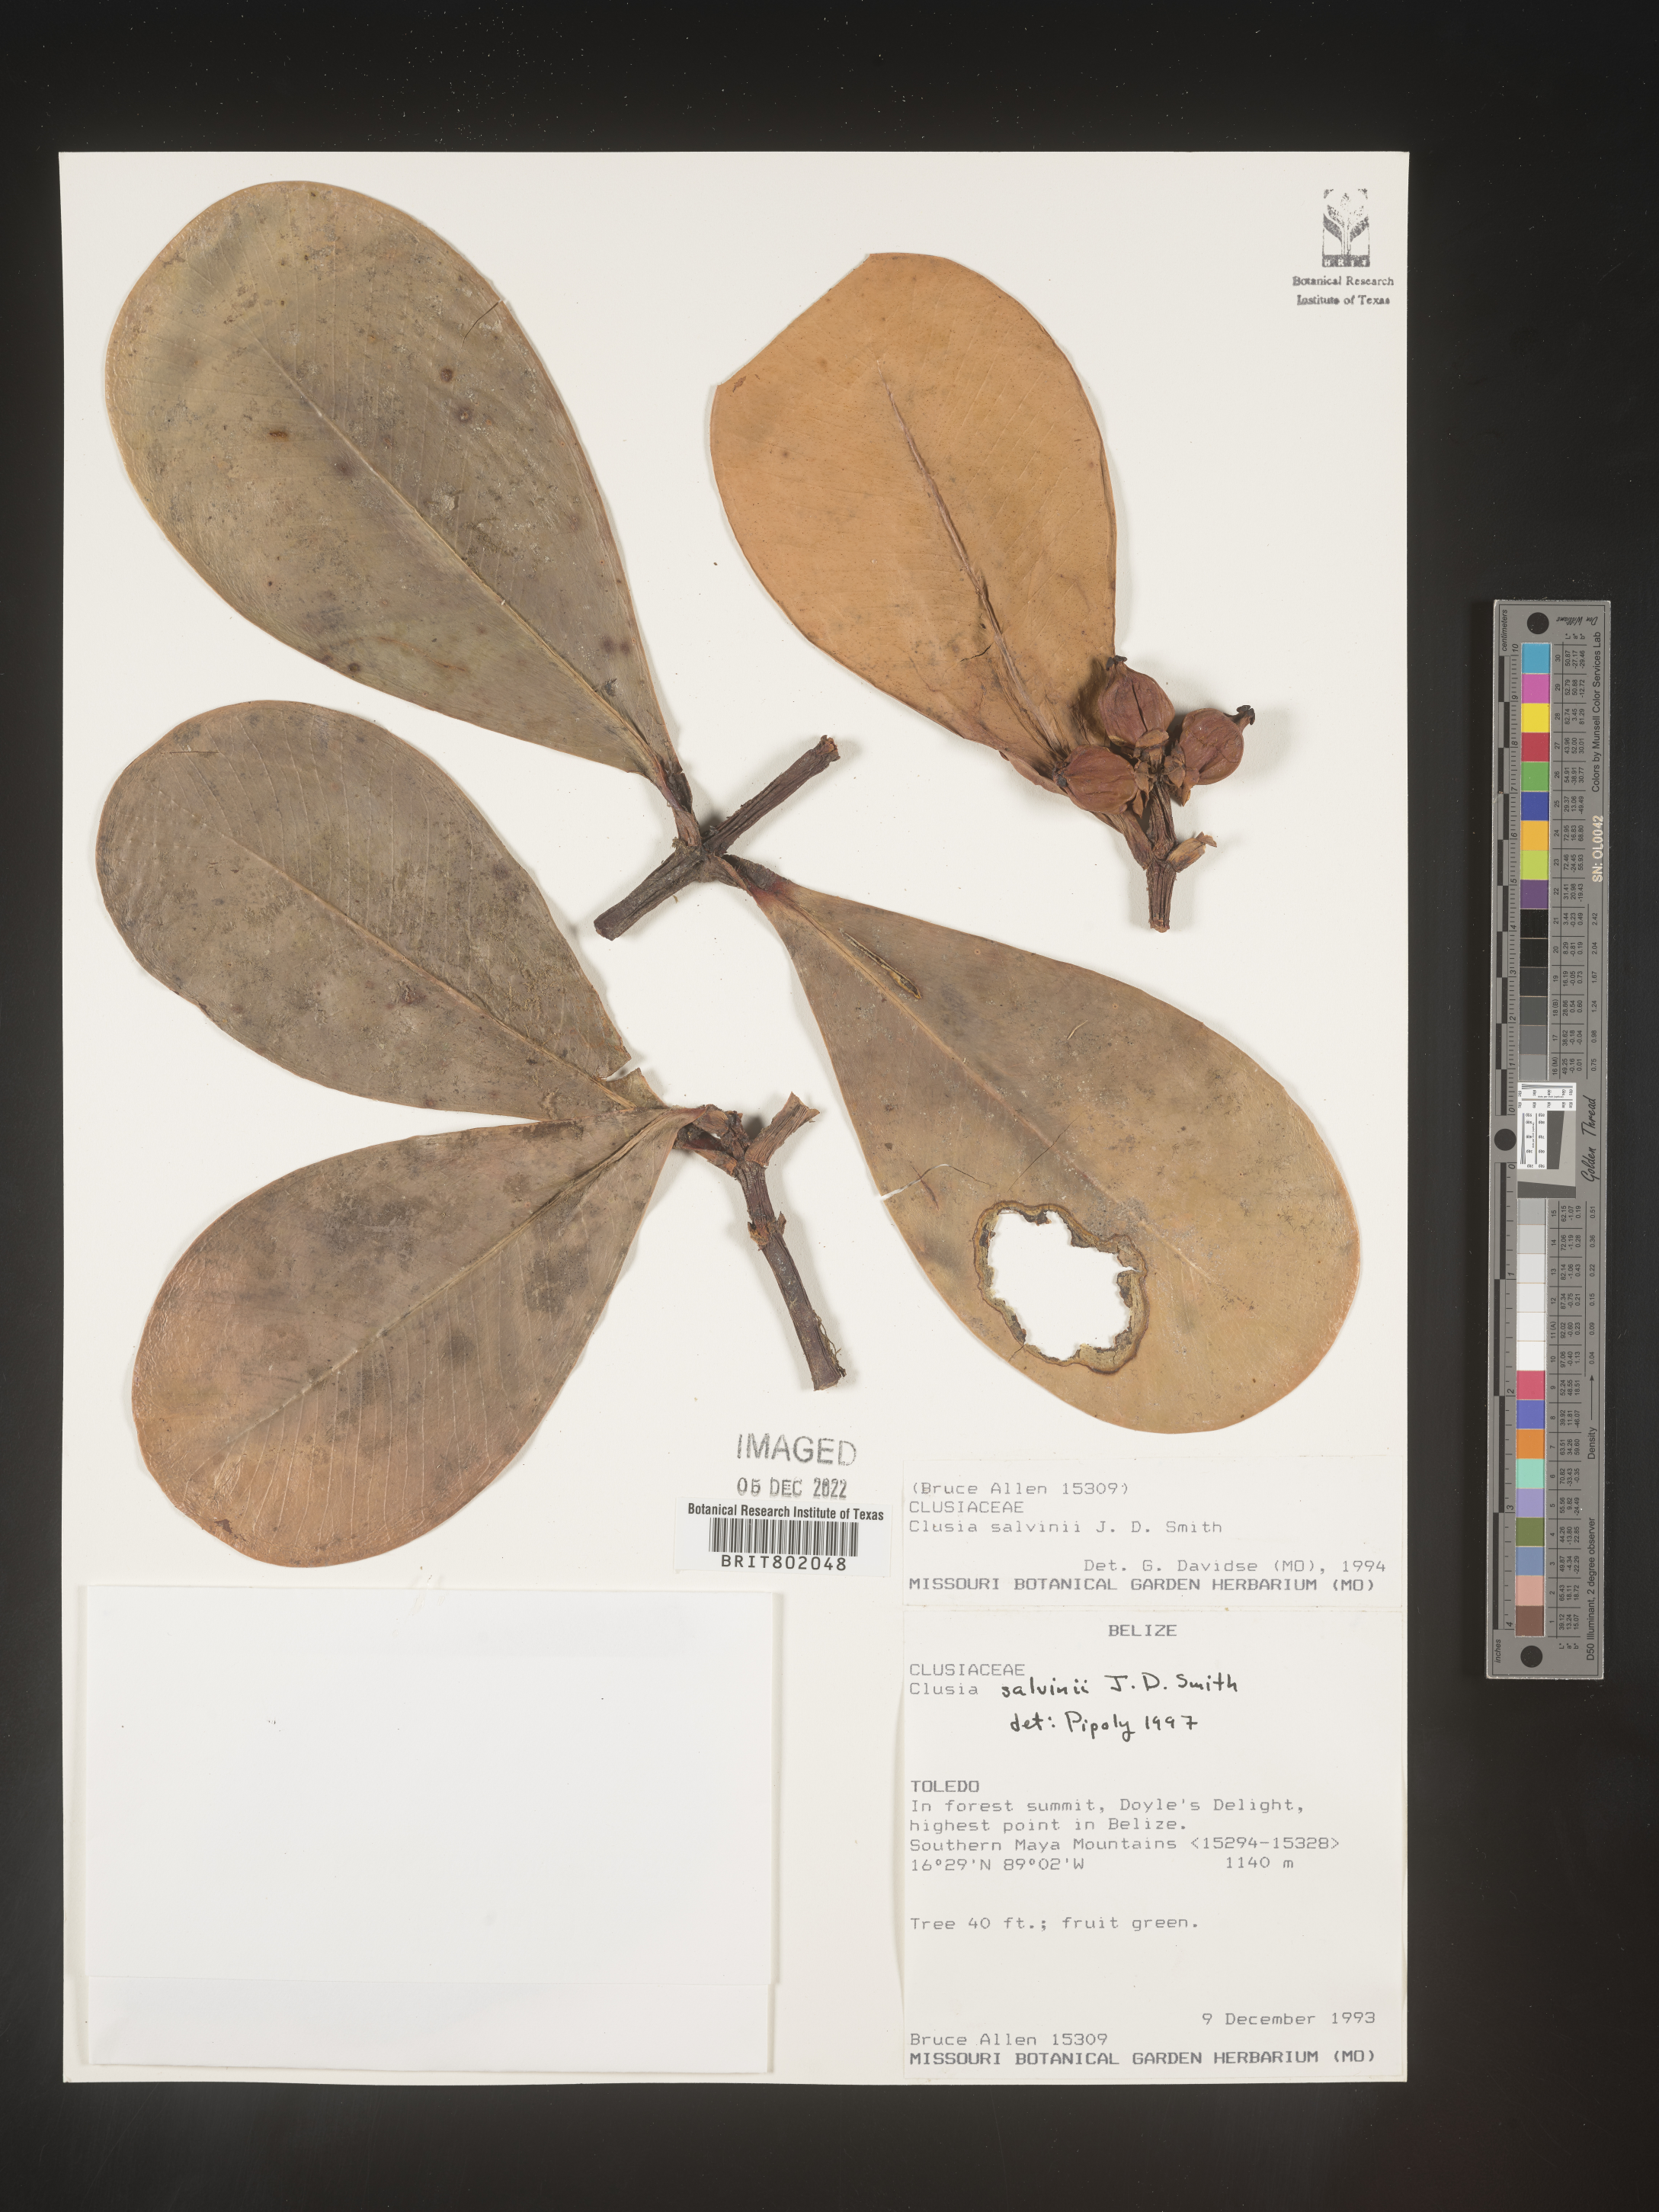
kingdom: Plantae
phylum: Tracheophyta
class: Magnoliopsida
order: Malpighiales
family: Clusiaceae
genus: Clusia
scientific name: Clusia
